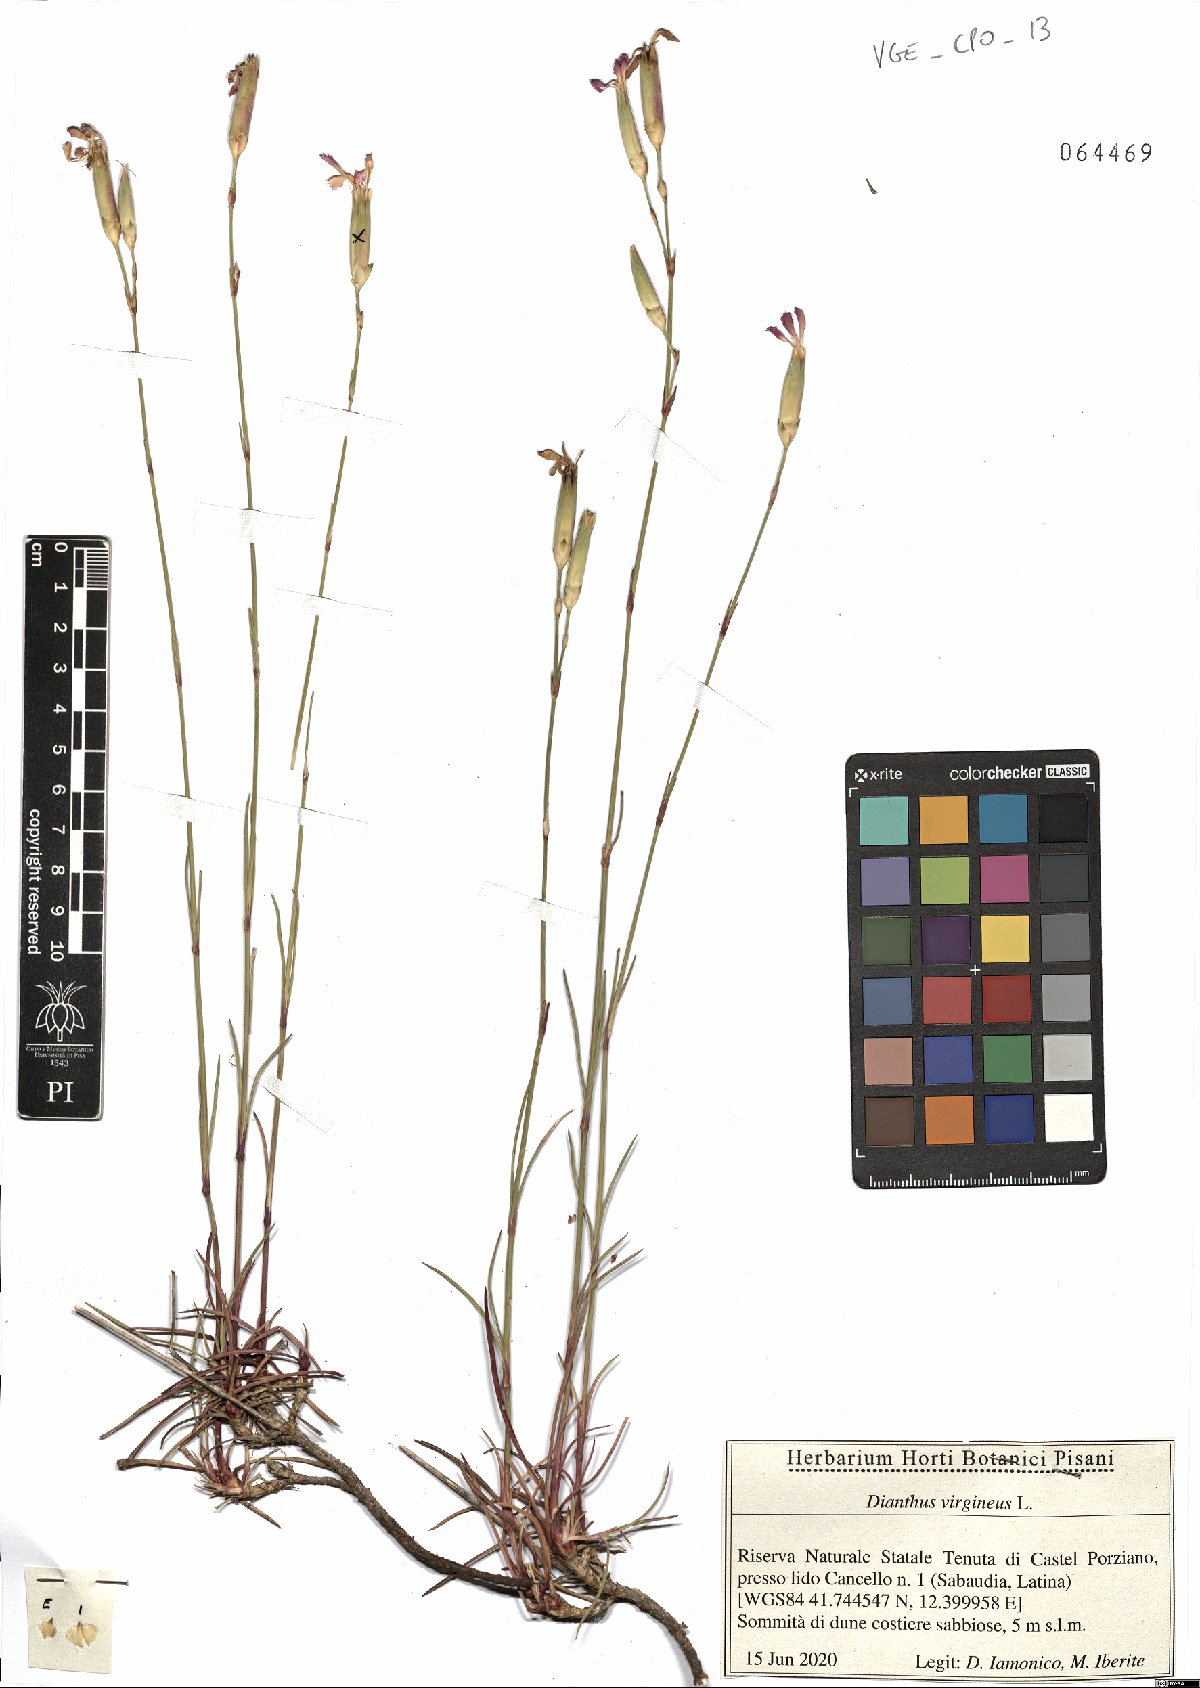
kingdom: Plantae
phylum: Tracheophyta
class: Magnoliopsida
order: Caryophyllales
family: Caryophyllaceae
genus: Dianthus
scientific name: Dianthus virgineus
